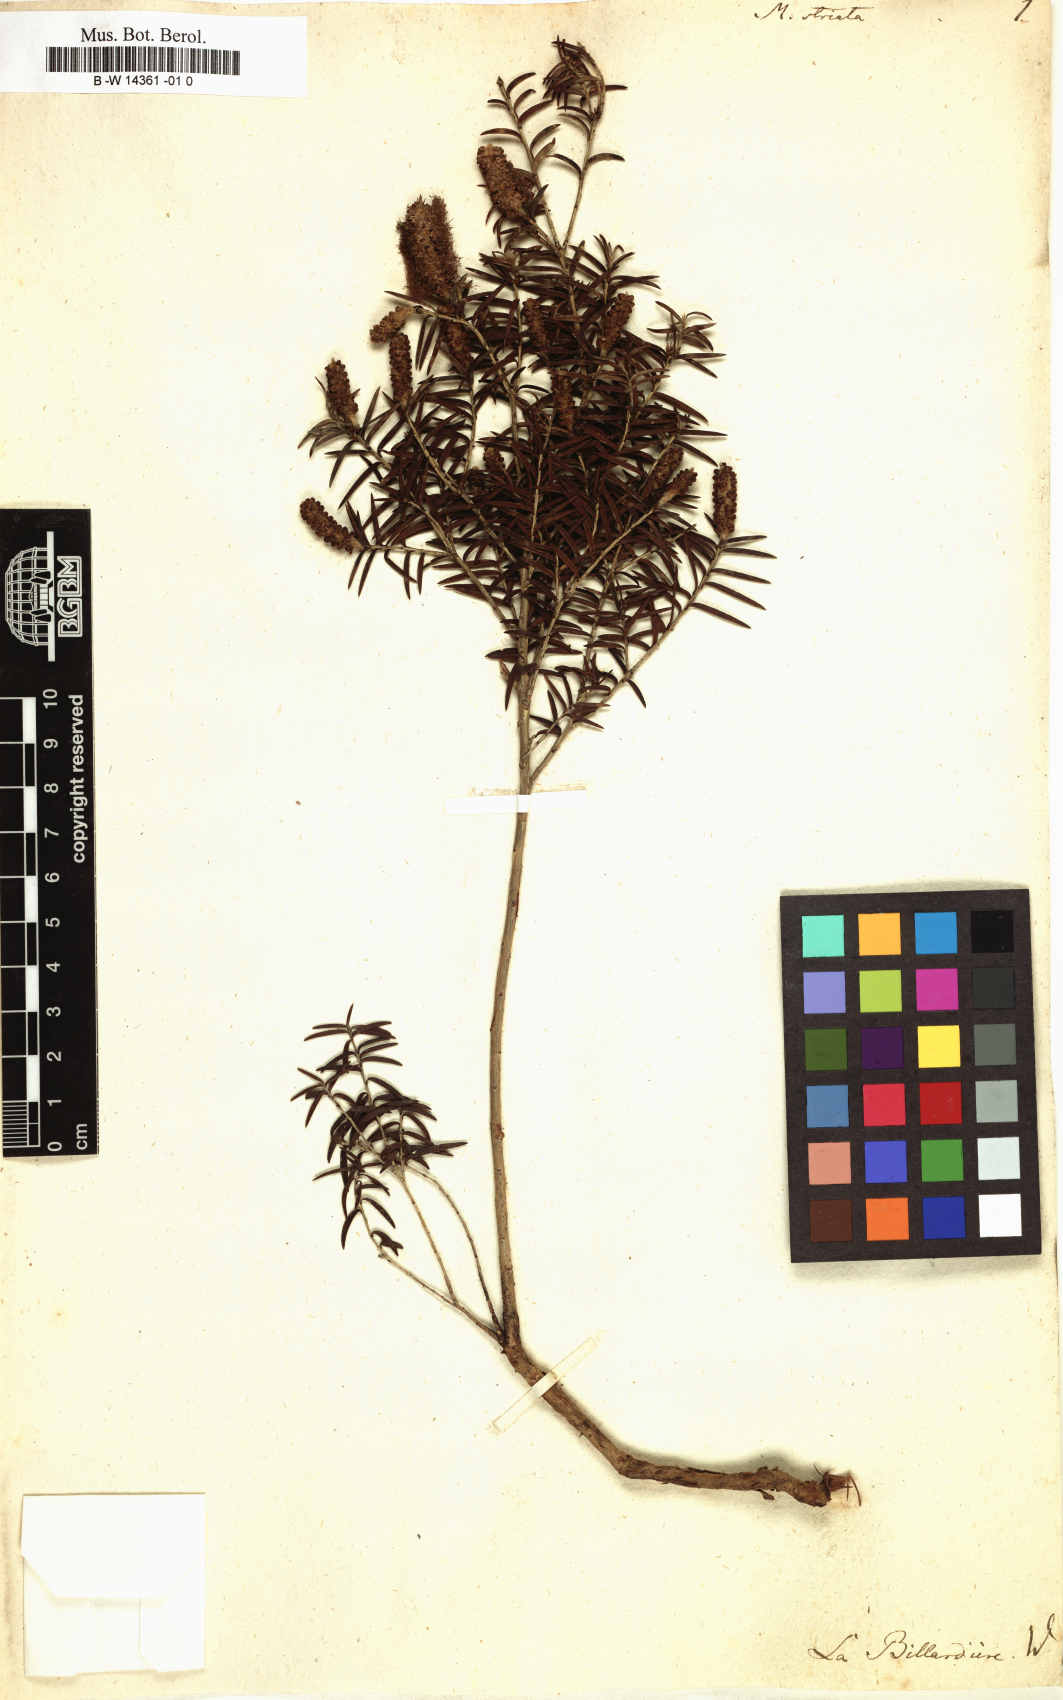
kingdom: Plantae
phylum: Tracheophyta
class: Magnoliopsida
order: Myrtales
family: Myrtaceae
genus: Melaleuca
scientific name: Melaleuca striata
